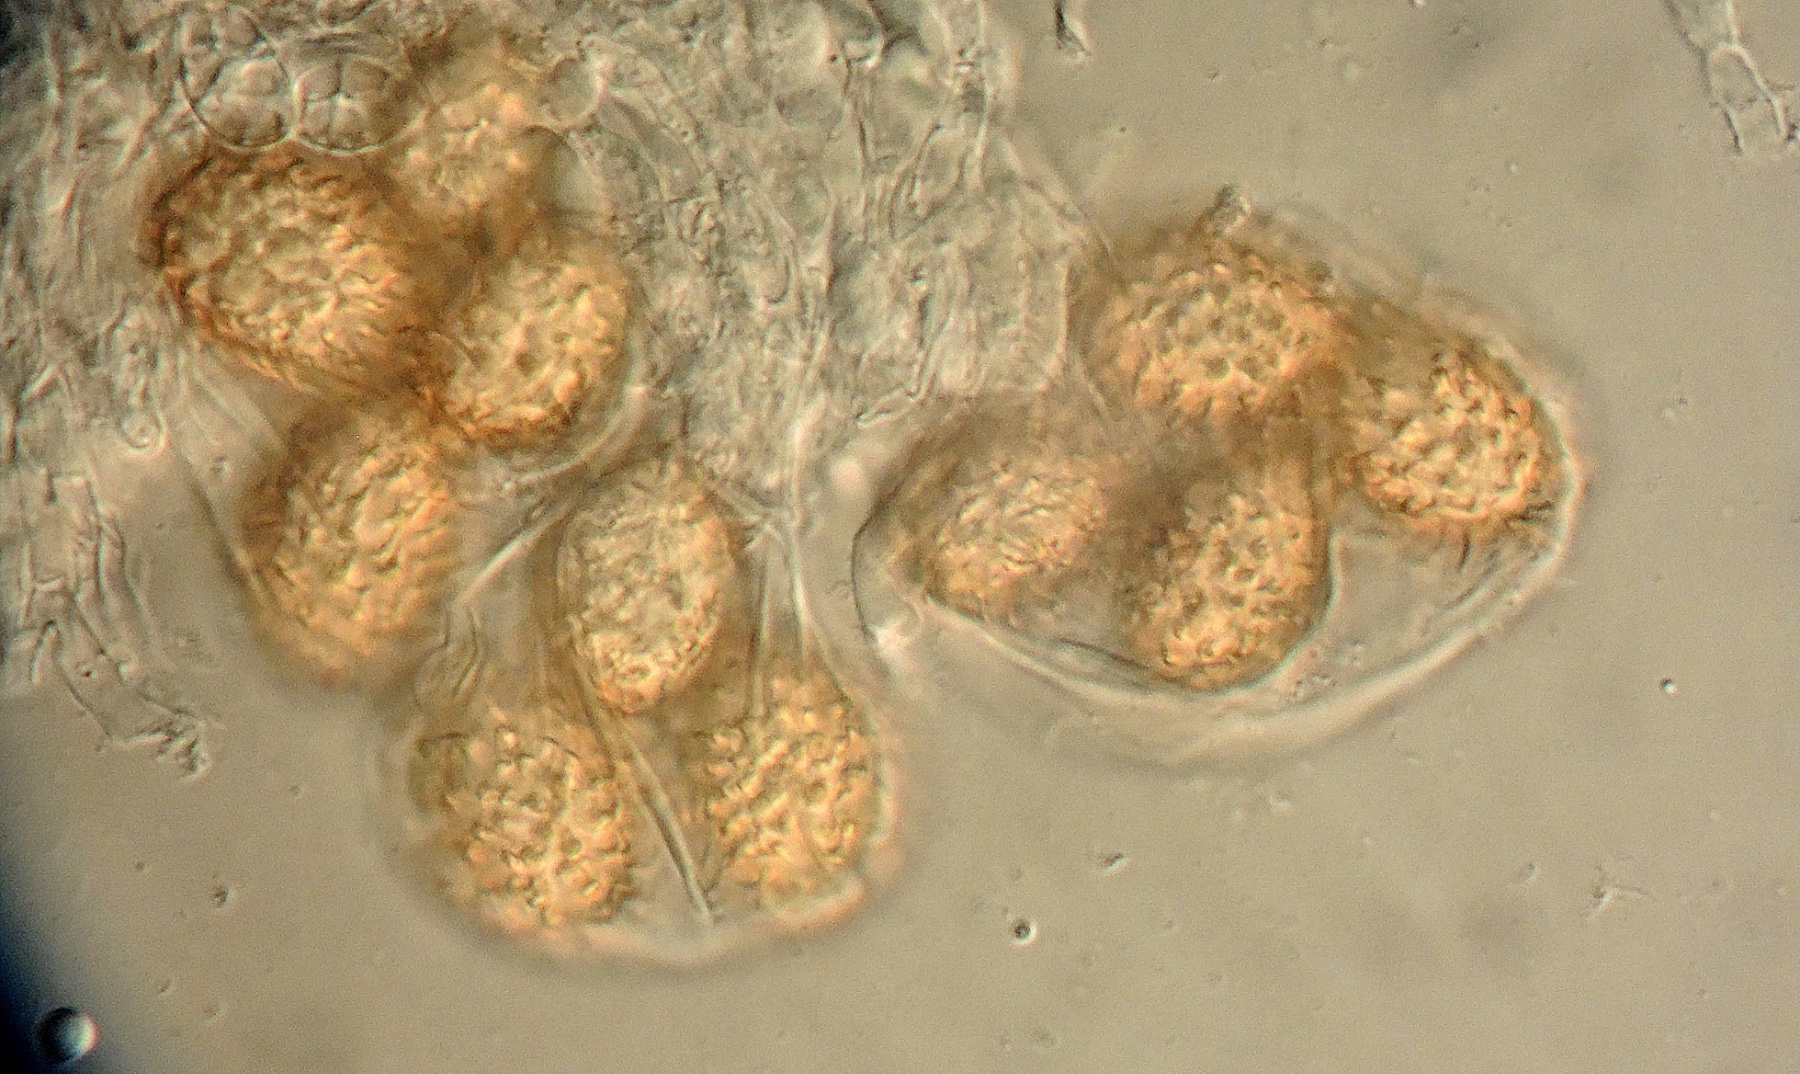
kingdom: Fungi
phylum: Ascomycota
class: Pezizomycetes
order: Pezizales
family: Tuberaceae
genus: Tuber
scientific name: Tuber rufum
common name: rødbrun trøffel
